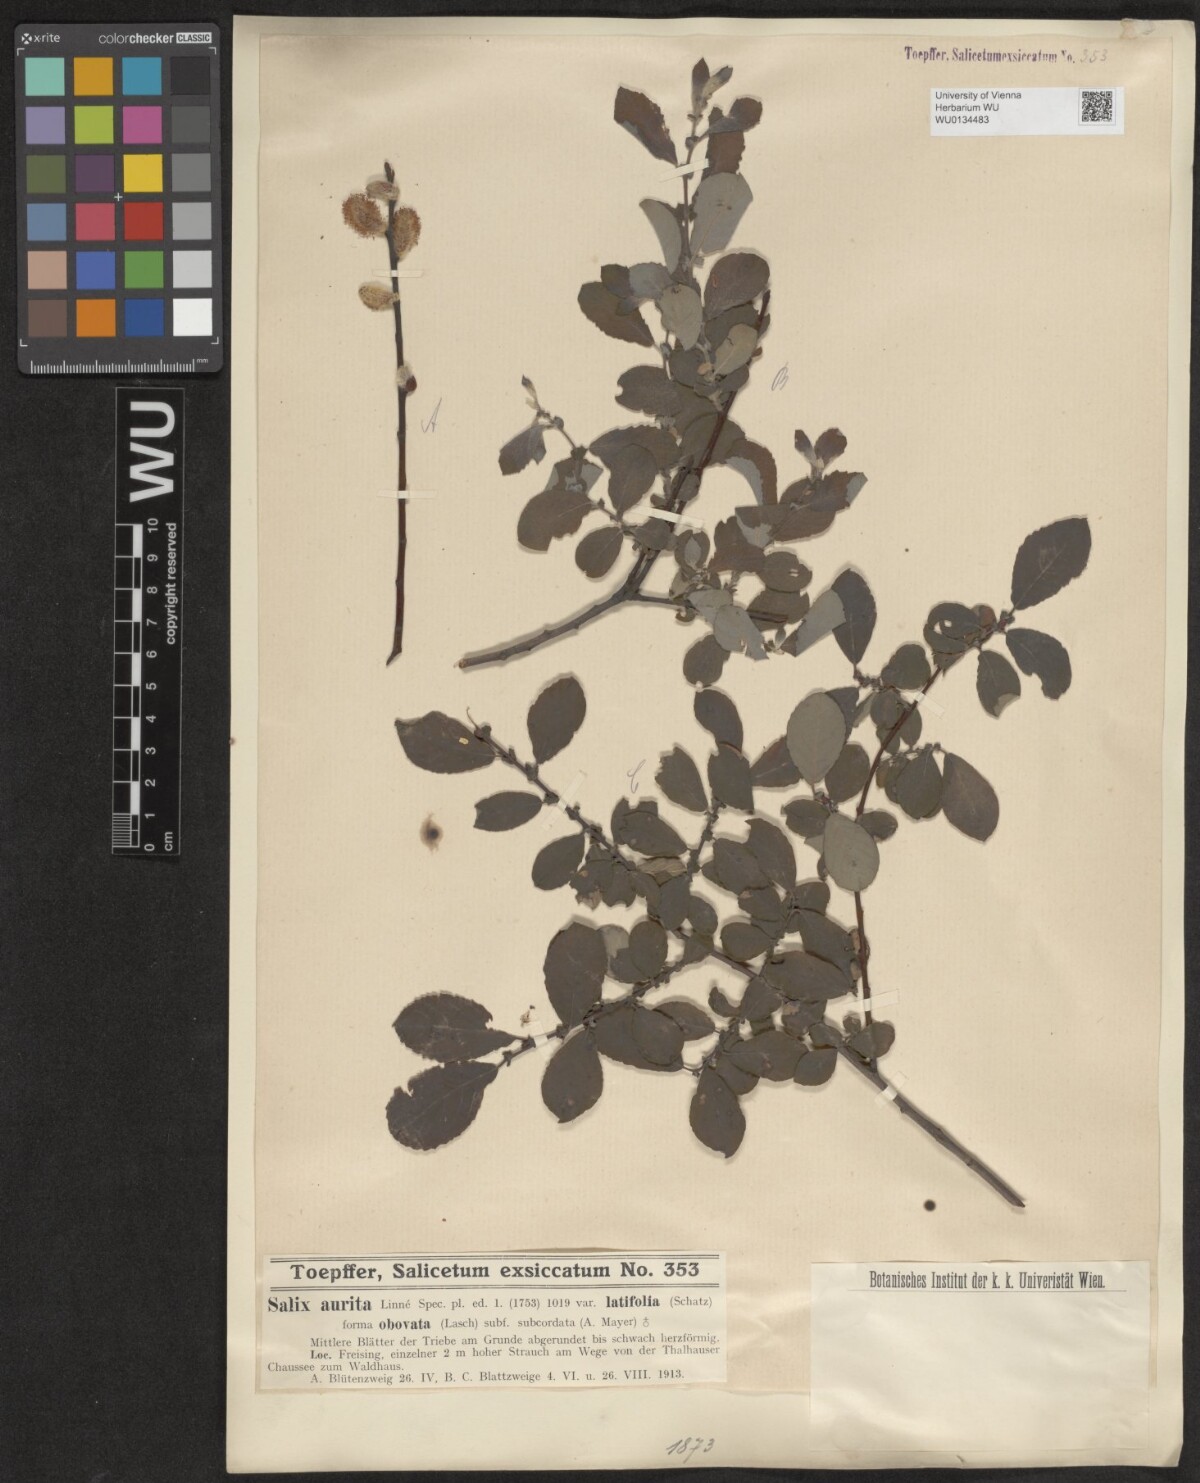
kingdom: Plantae
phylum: Tracheophyta
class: Magnoliopsida
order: Malpighiales
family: Salicaceae
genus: Salix
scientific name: Salix aurita
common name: Eared willow
